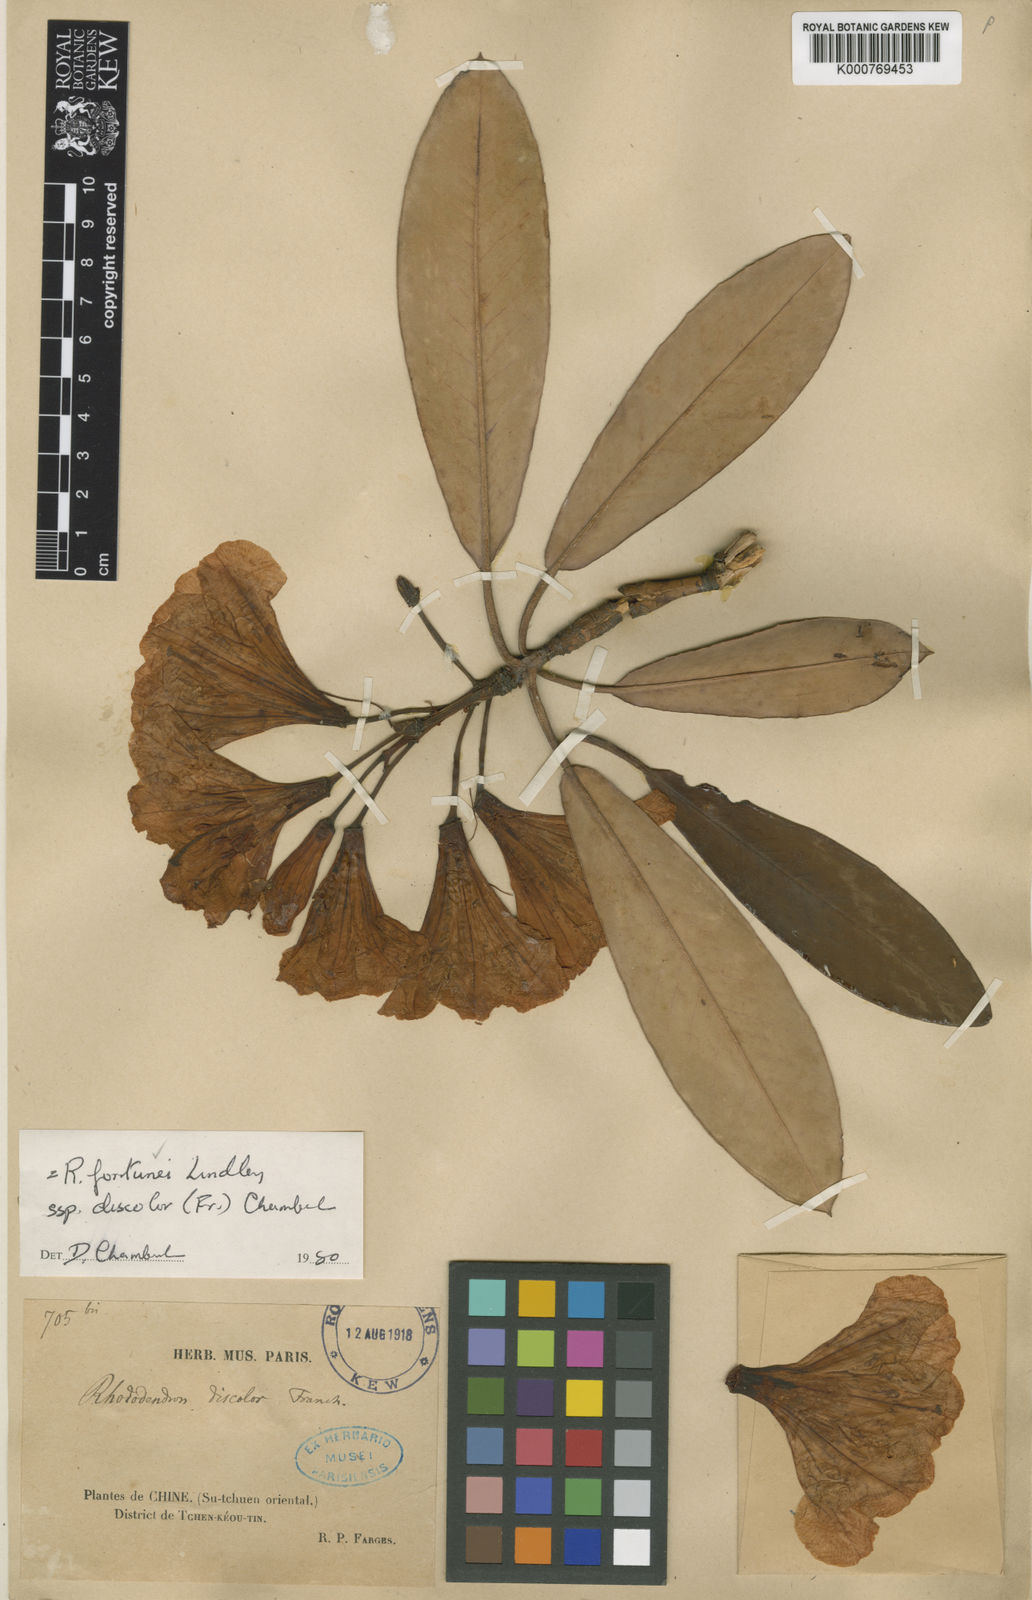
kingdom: Plantae
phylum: Tracheophyta
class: Magnoliopsida
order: Ericales
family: Ericaceae
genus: Rhododendron
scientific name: Rhododendron fortunei
